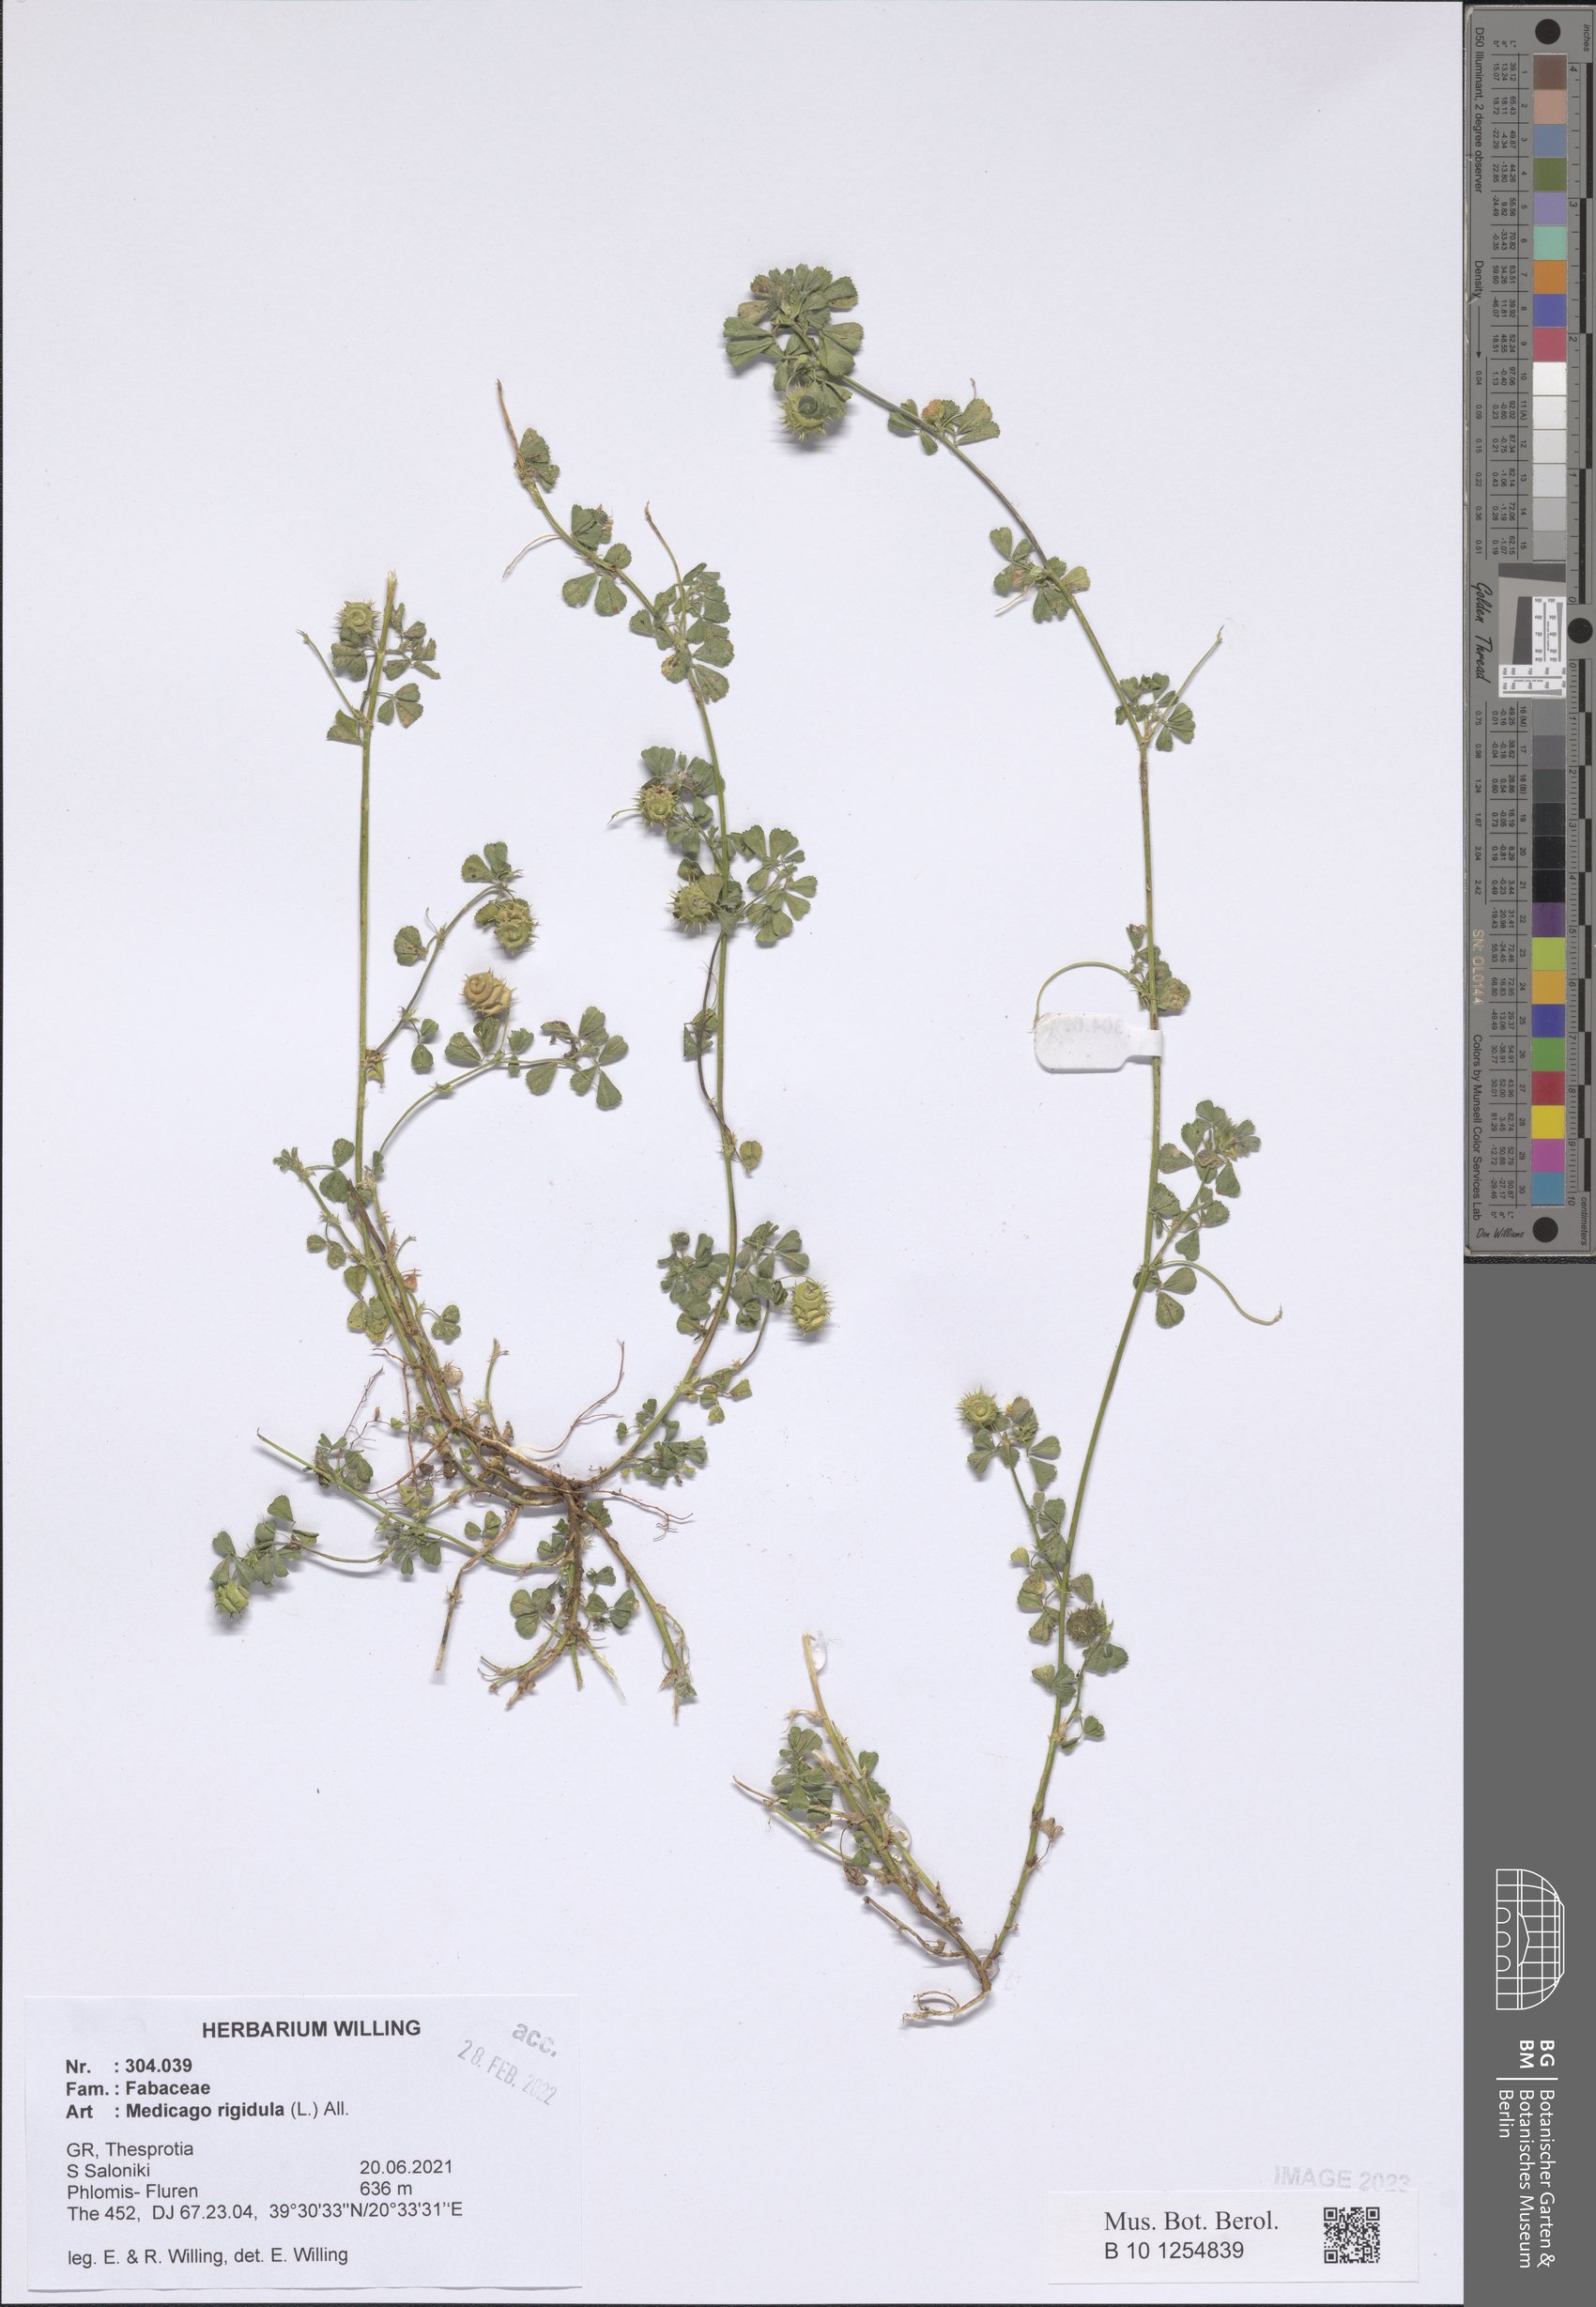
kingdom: Plantae
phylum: Tracheophyta
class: Magnoliopsida
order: Fabales
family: Fabaceae
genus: Medicago
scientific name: Medicago rigidula
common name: Tifton medic
